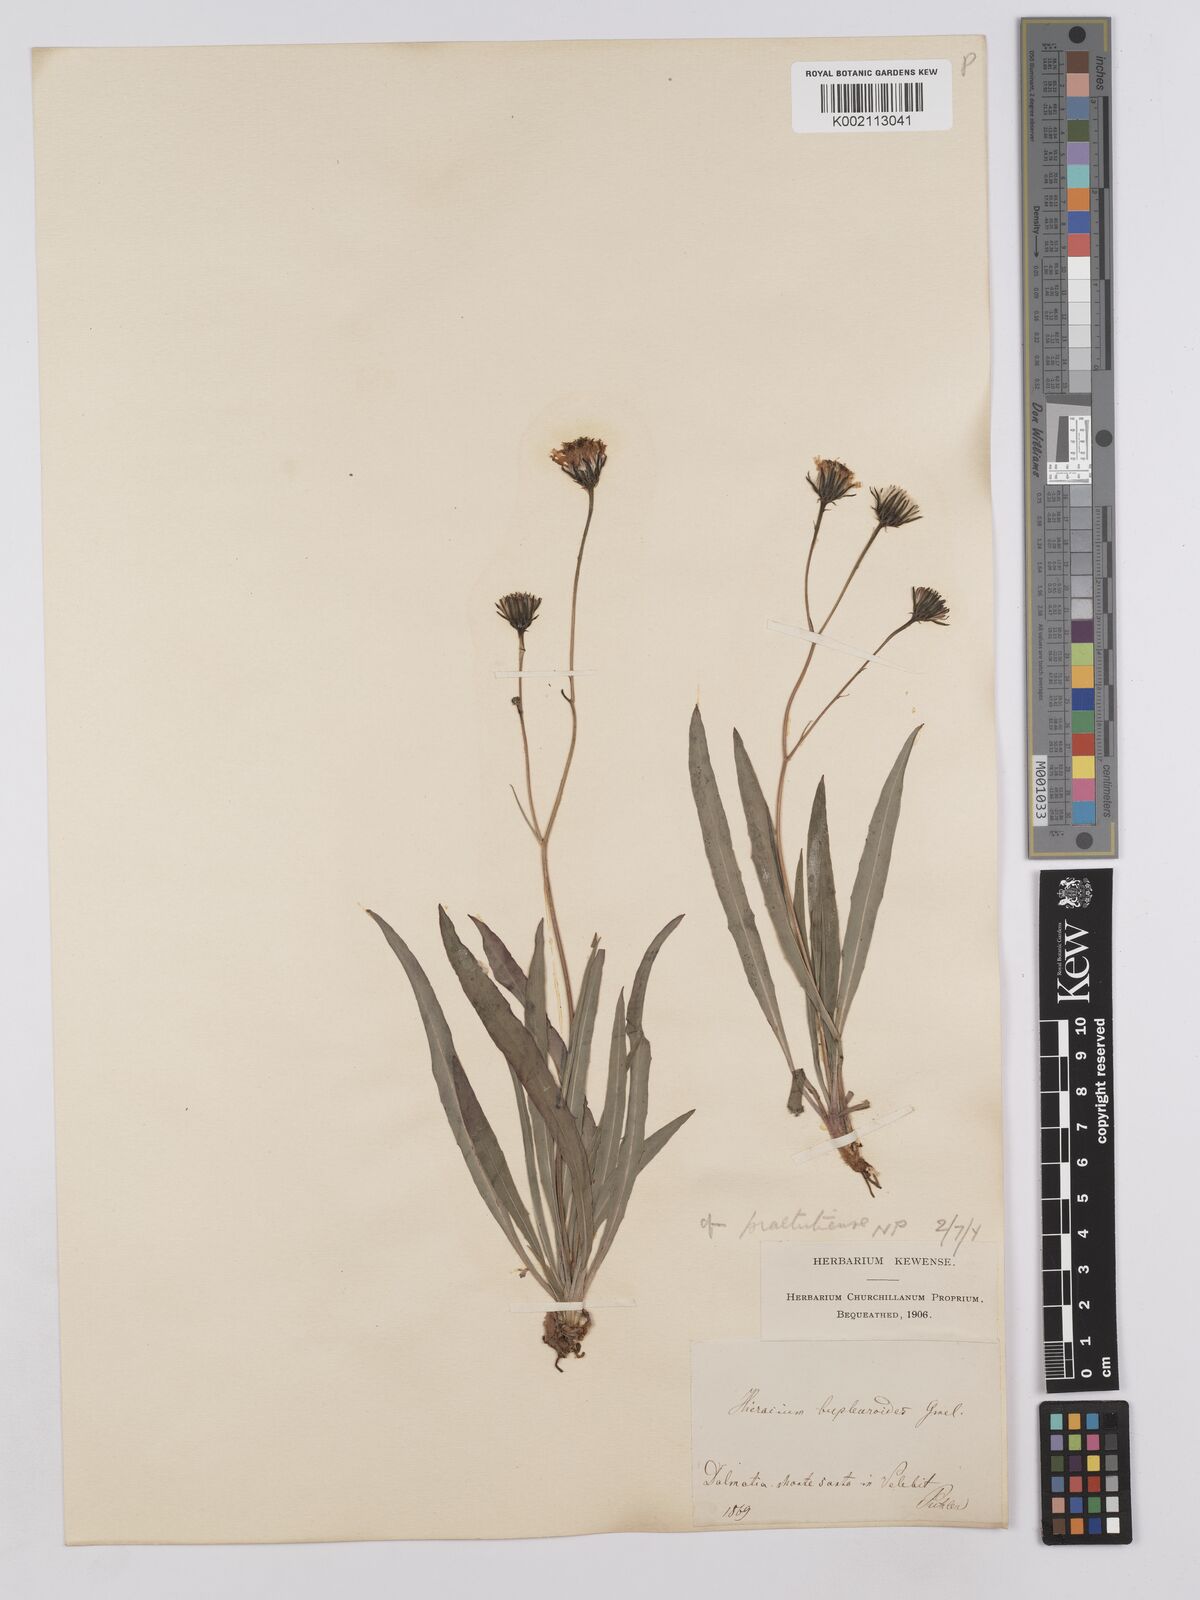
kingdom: Plantae
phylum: Tracheophyta
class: Magnoliopsida
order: Asterales
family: Asteraceae
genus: Hieracium
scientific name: Hieracium bupleuroides
